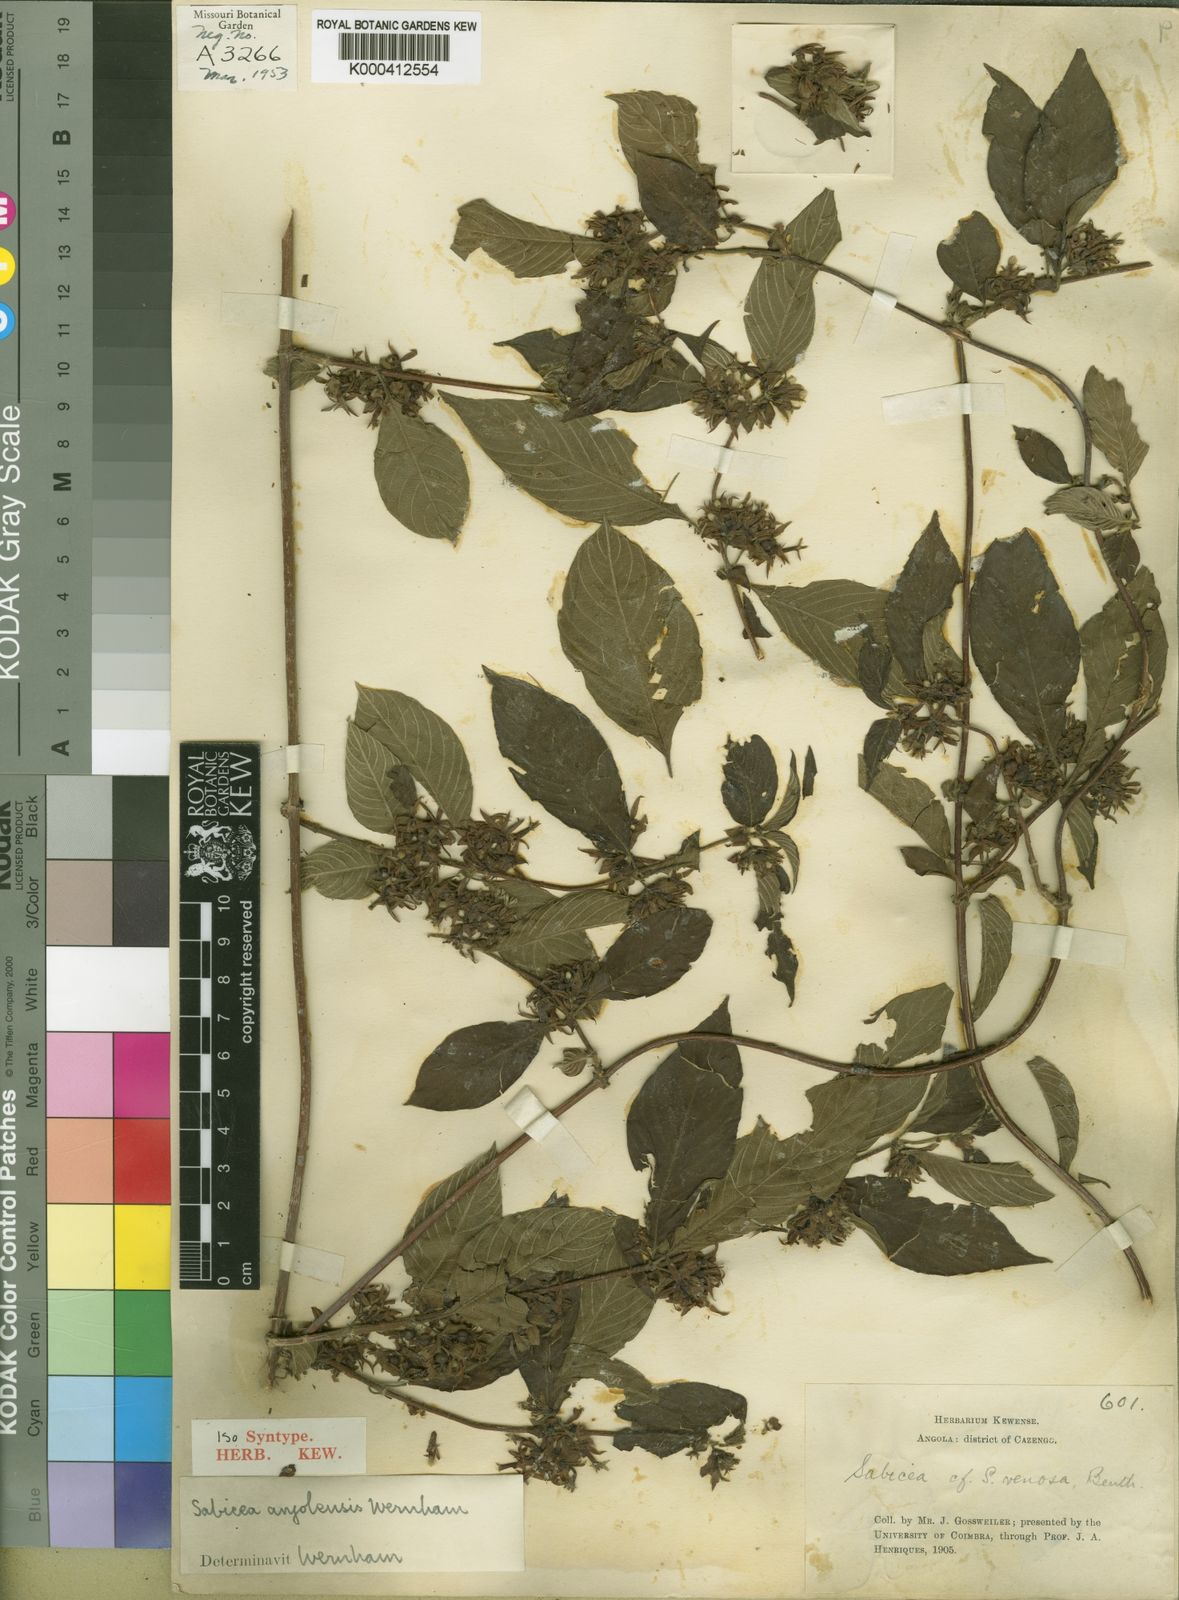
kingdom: Plantae
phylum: Tracheophyta
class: Magnoliopsida
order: Gentianales
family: Rubiaceae
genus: Sabicea
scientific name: Sabicea venosa
